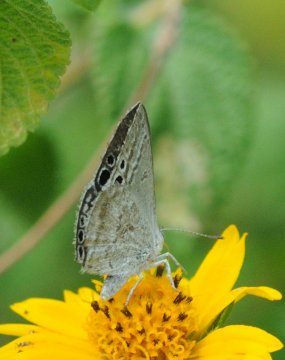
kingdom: Animalia
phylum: Arthropoda
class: Insecta
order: Lepidoptera
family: Lycaenidae
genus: Leptomyrina
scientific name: Leptomyrina gorgias
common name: Common Black-eye
